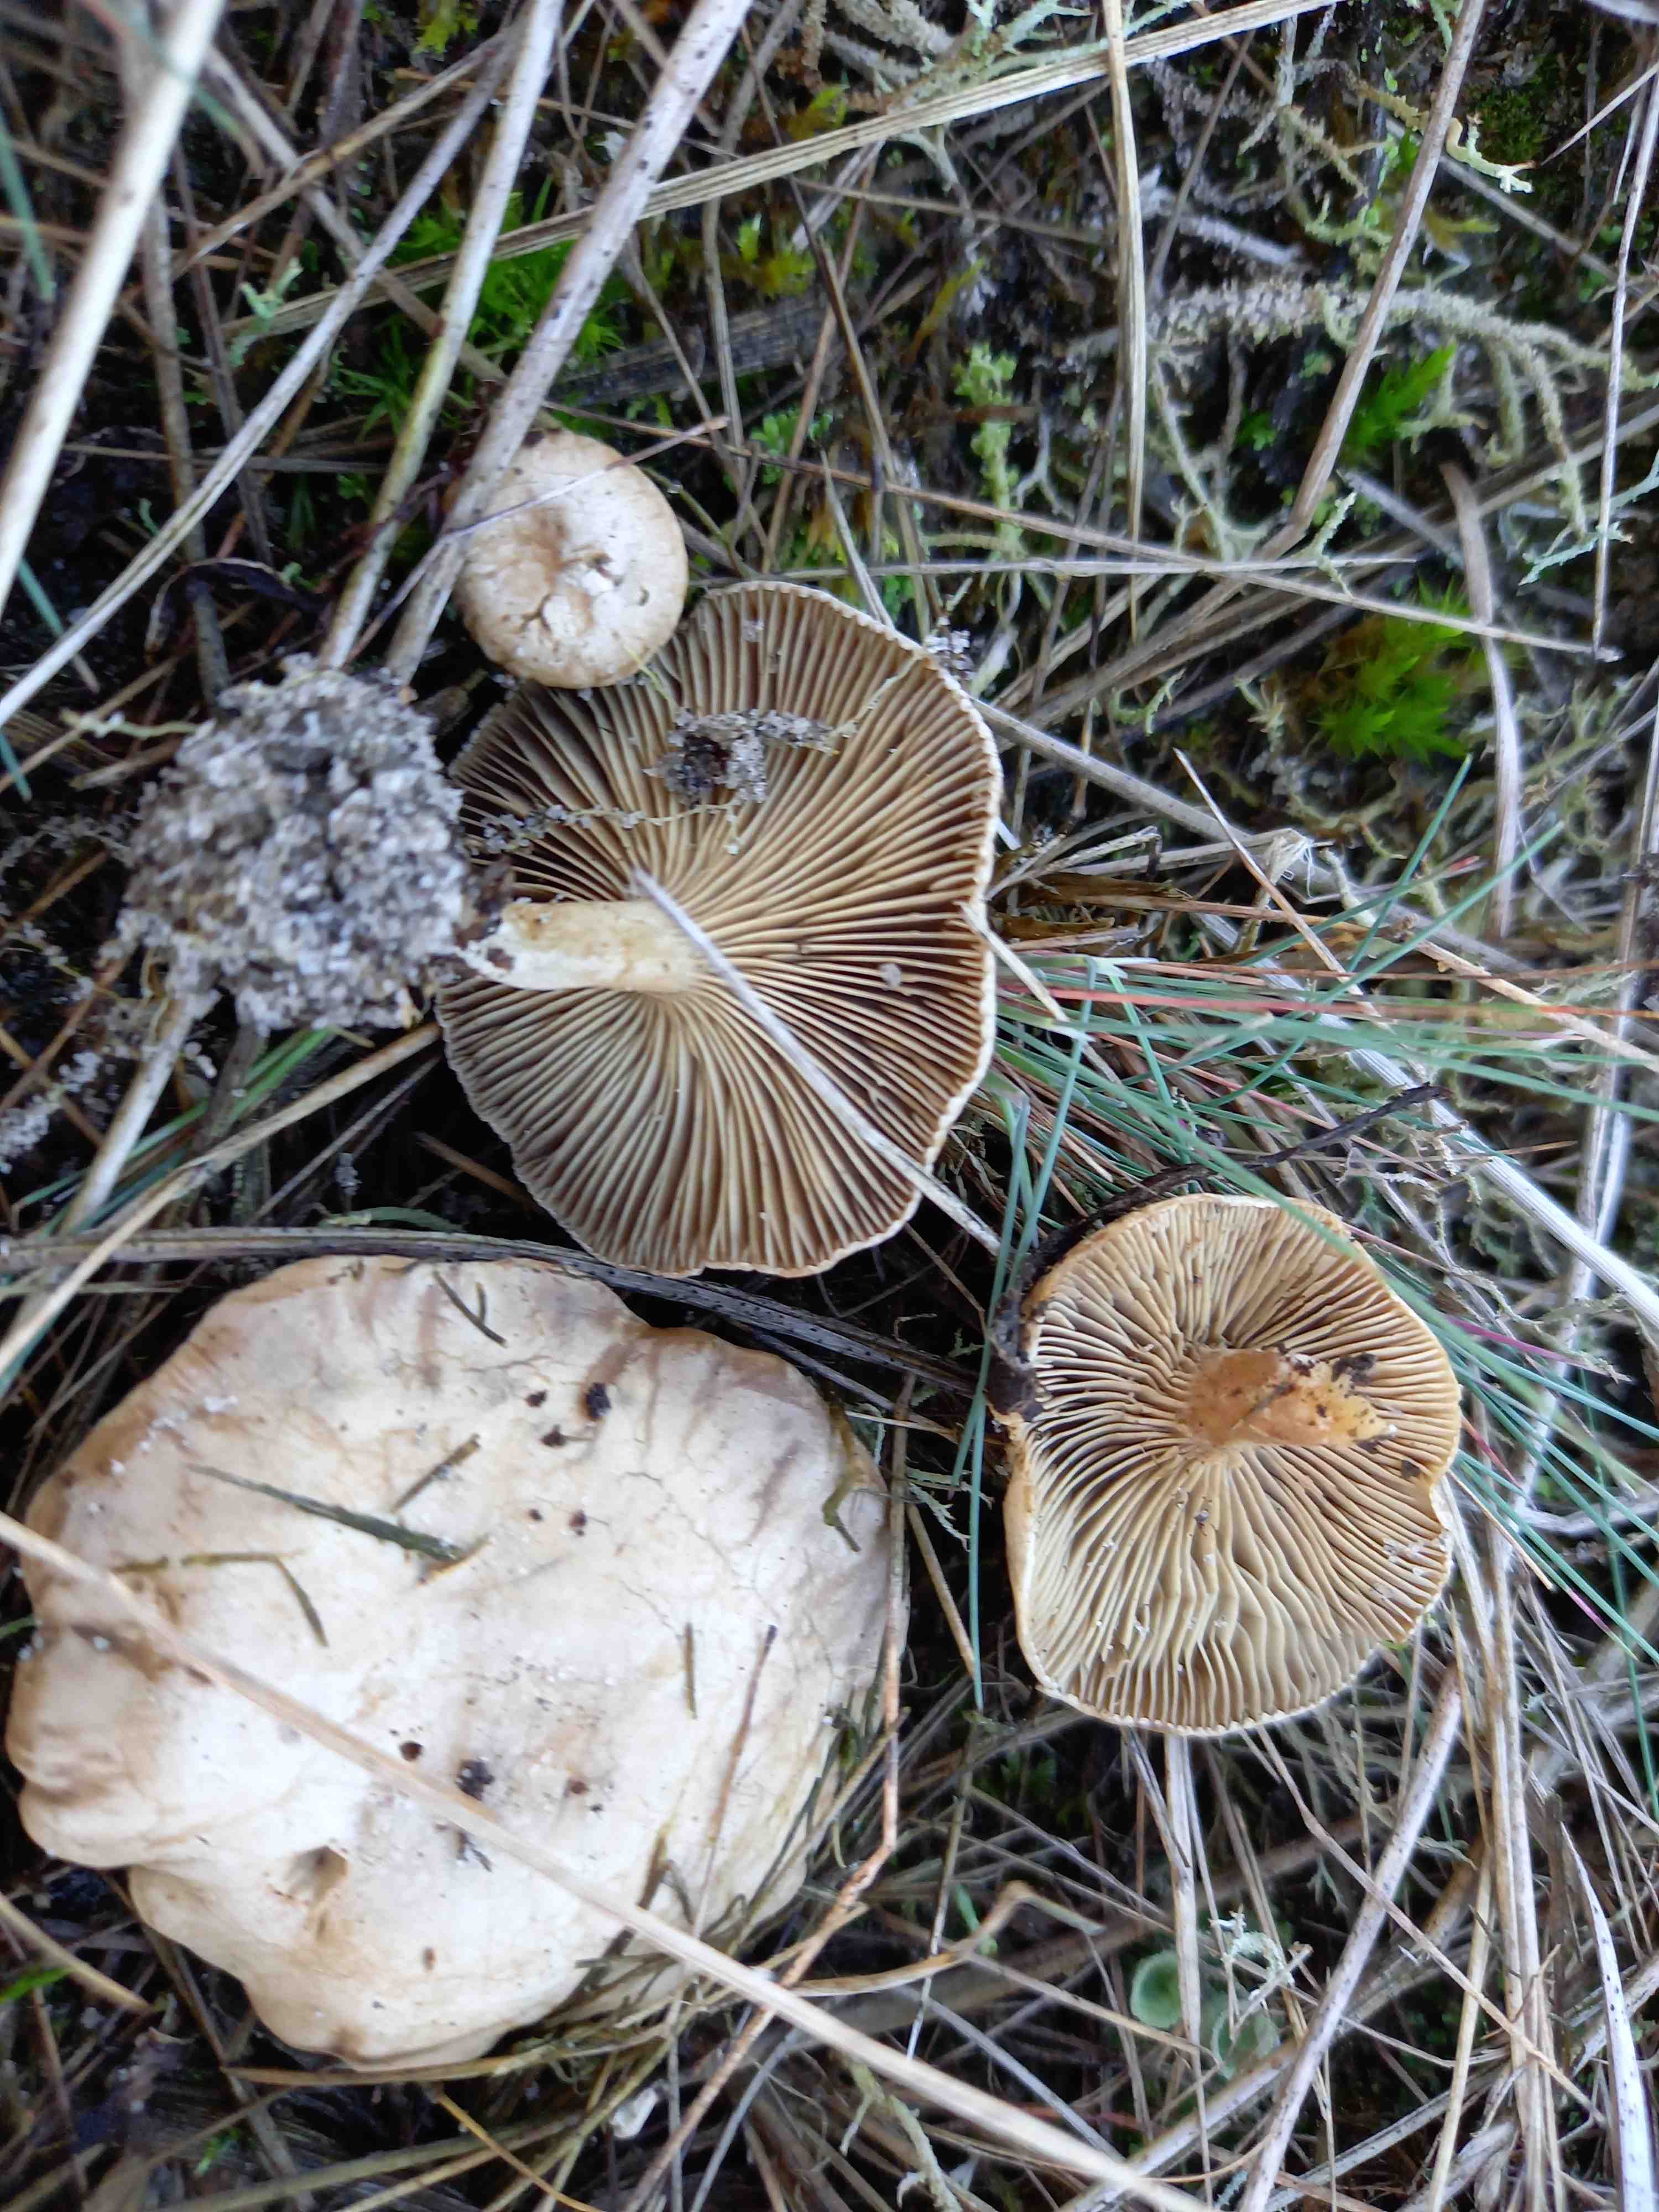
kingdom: Fungi
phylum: Basidiomycota
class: Agaricomycetes
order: Agaricales
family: Entolomataceae
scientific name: Entolomataceae
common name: rødbladfamilien
